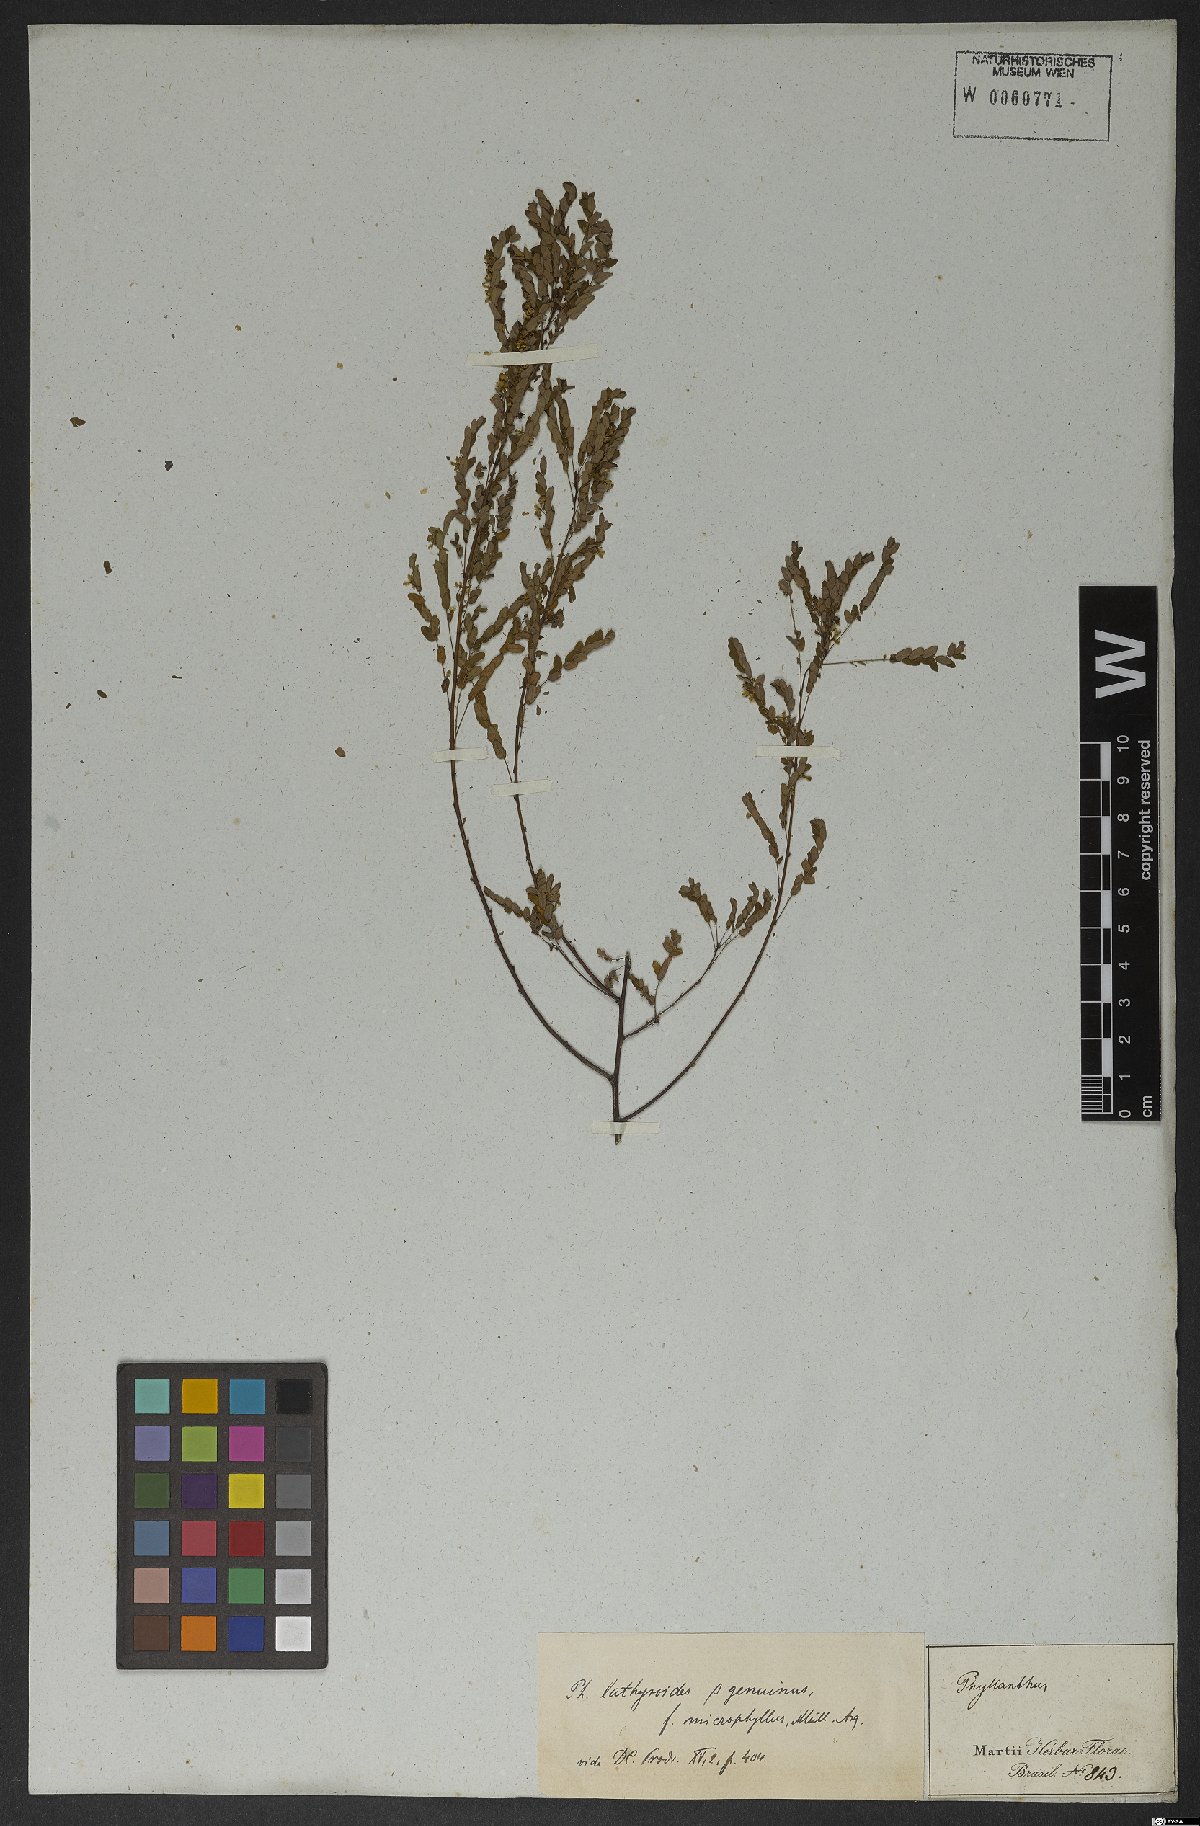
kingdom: Plantae
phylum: Tracheophyta
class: Magnoliopsida
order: Malpighiales
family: Phyllanthaceae
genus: Phyllanthus
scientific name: Phyllanthus niruri
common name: Niruri
